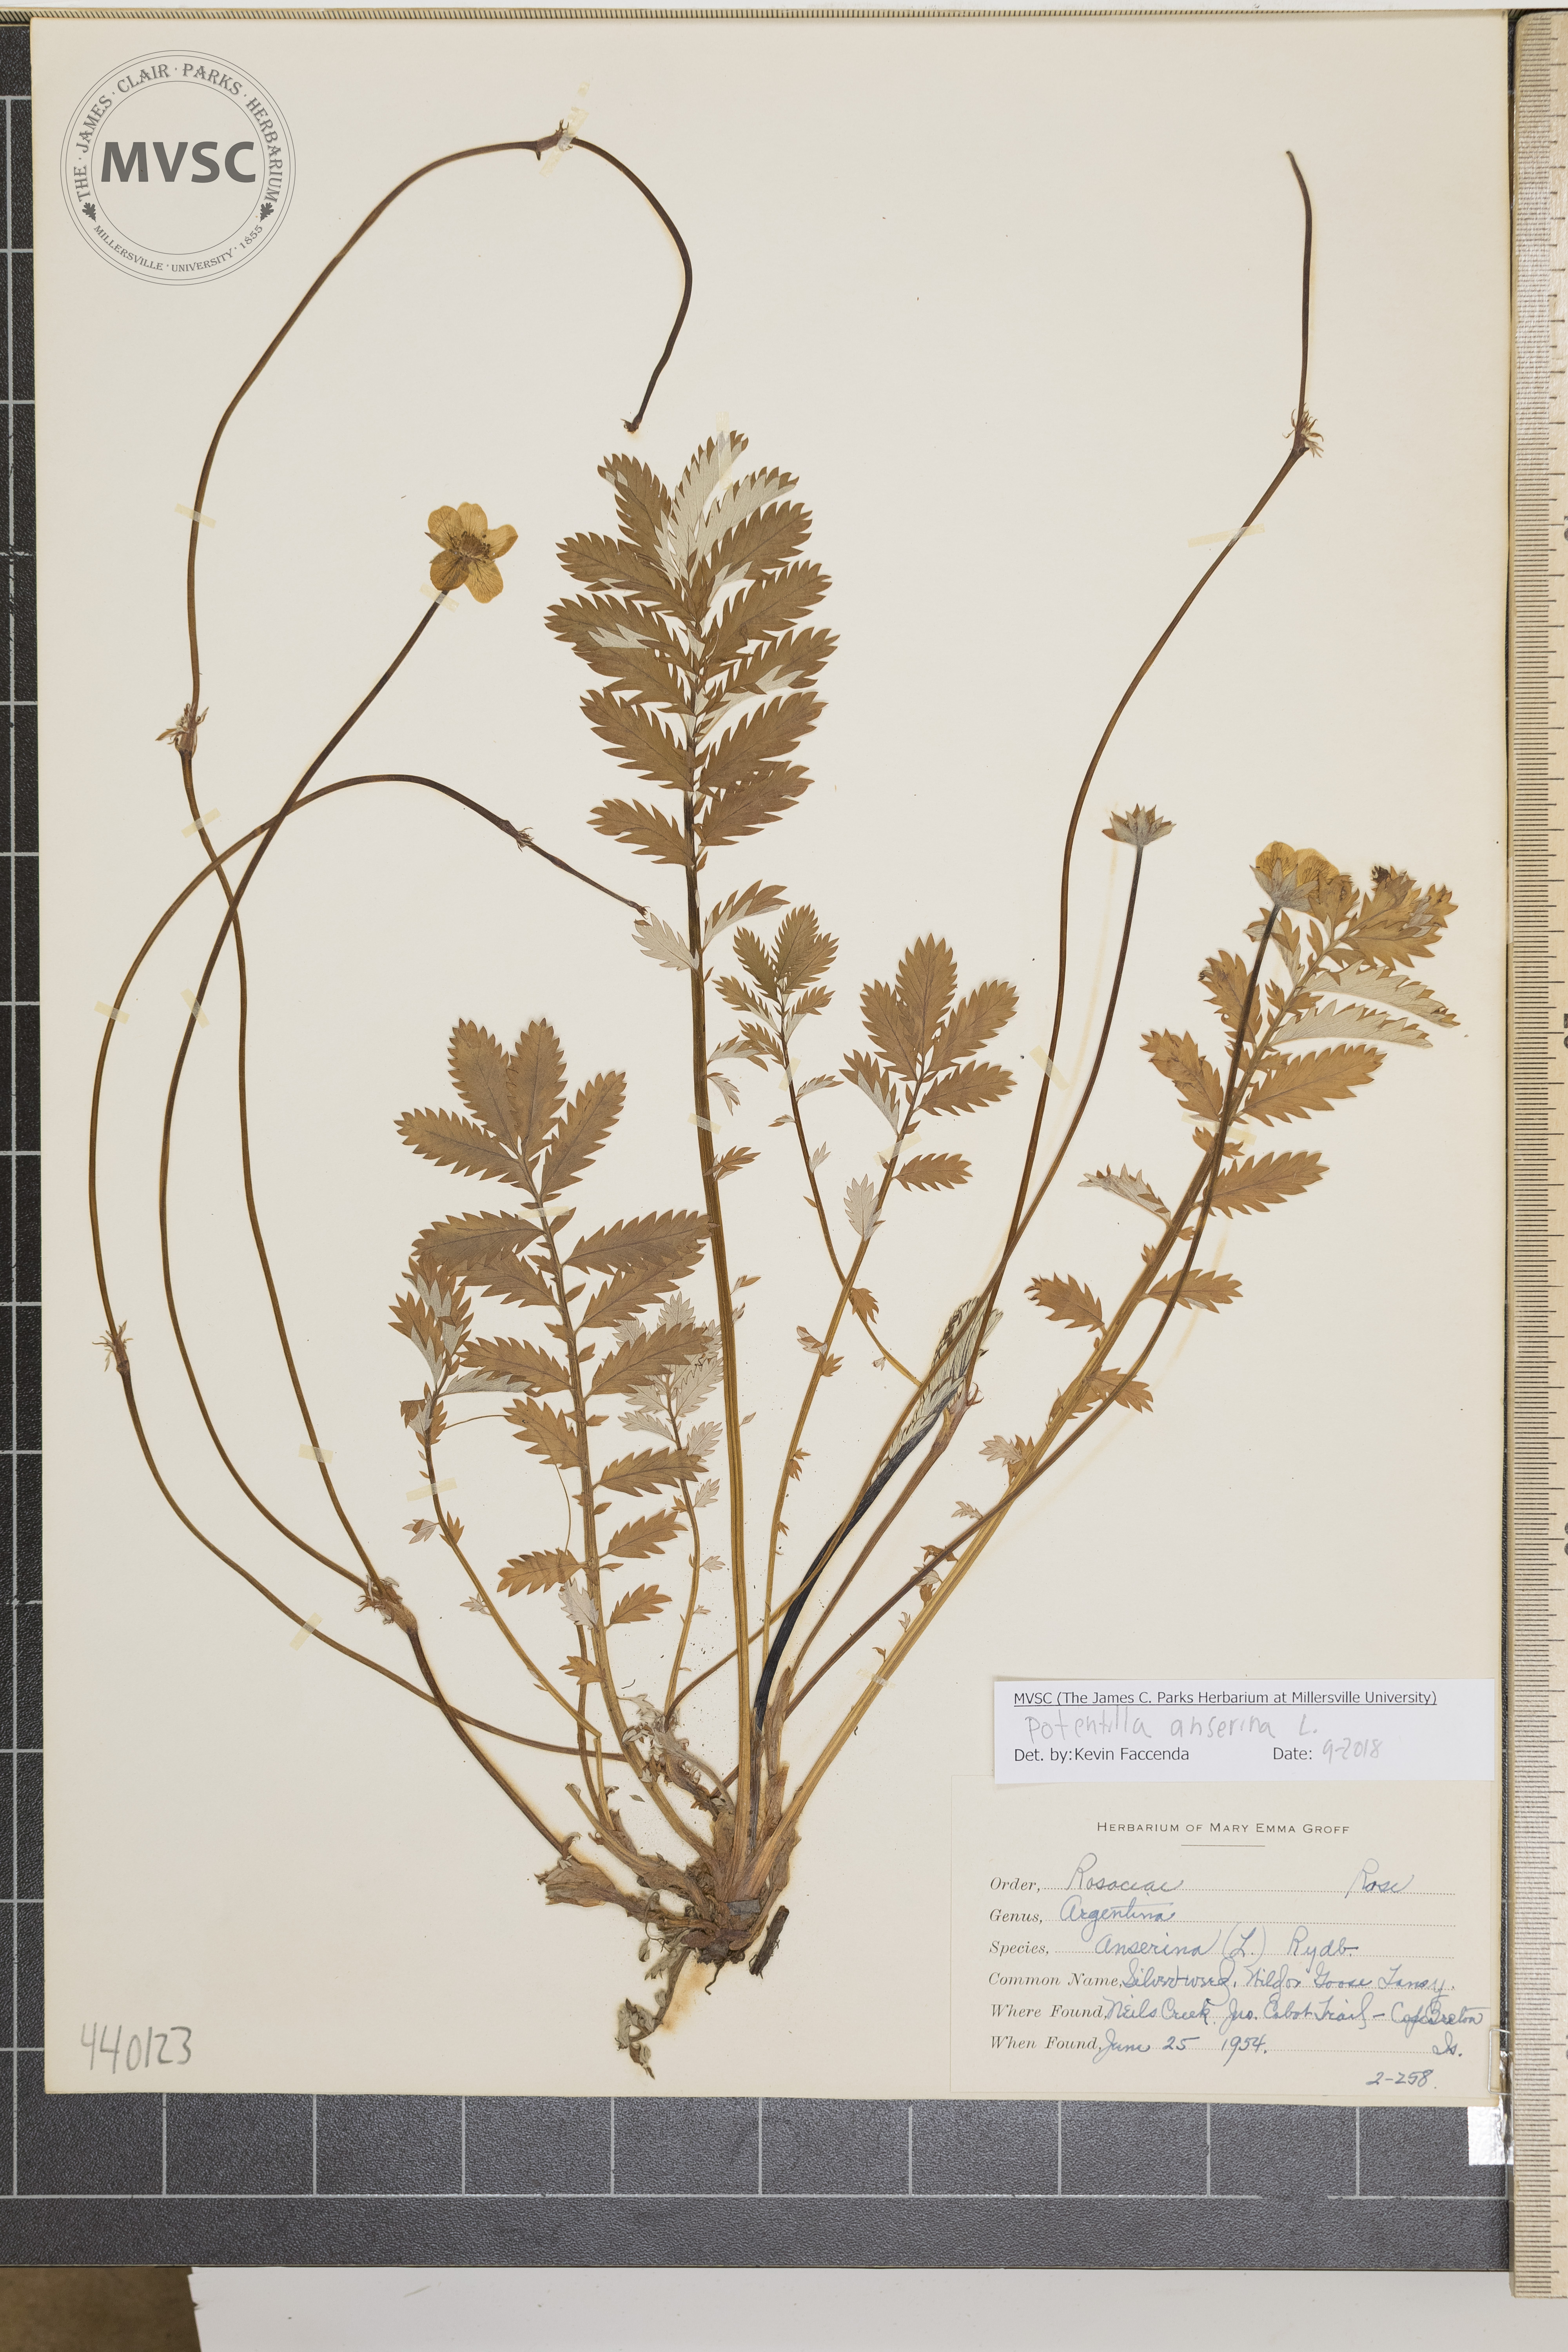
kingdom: Plantae
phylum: Tracheophyta
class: Magnoliopsida
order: Rosales
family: Rosaceae
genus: Argentina
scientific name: Argentina anserina
